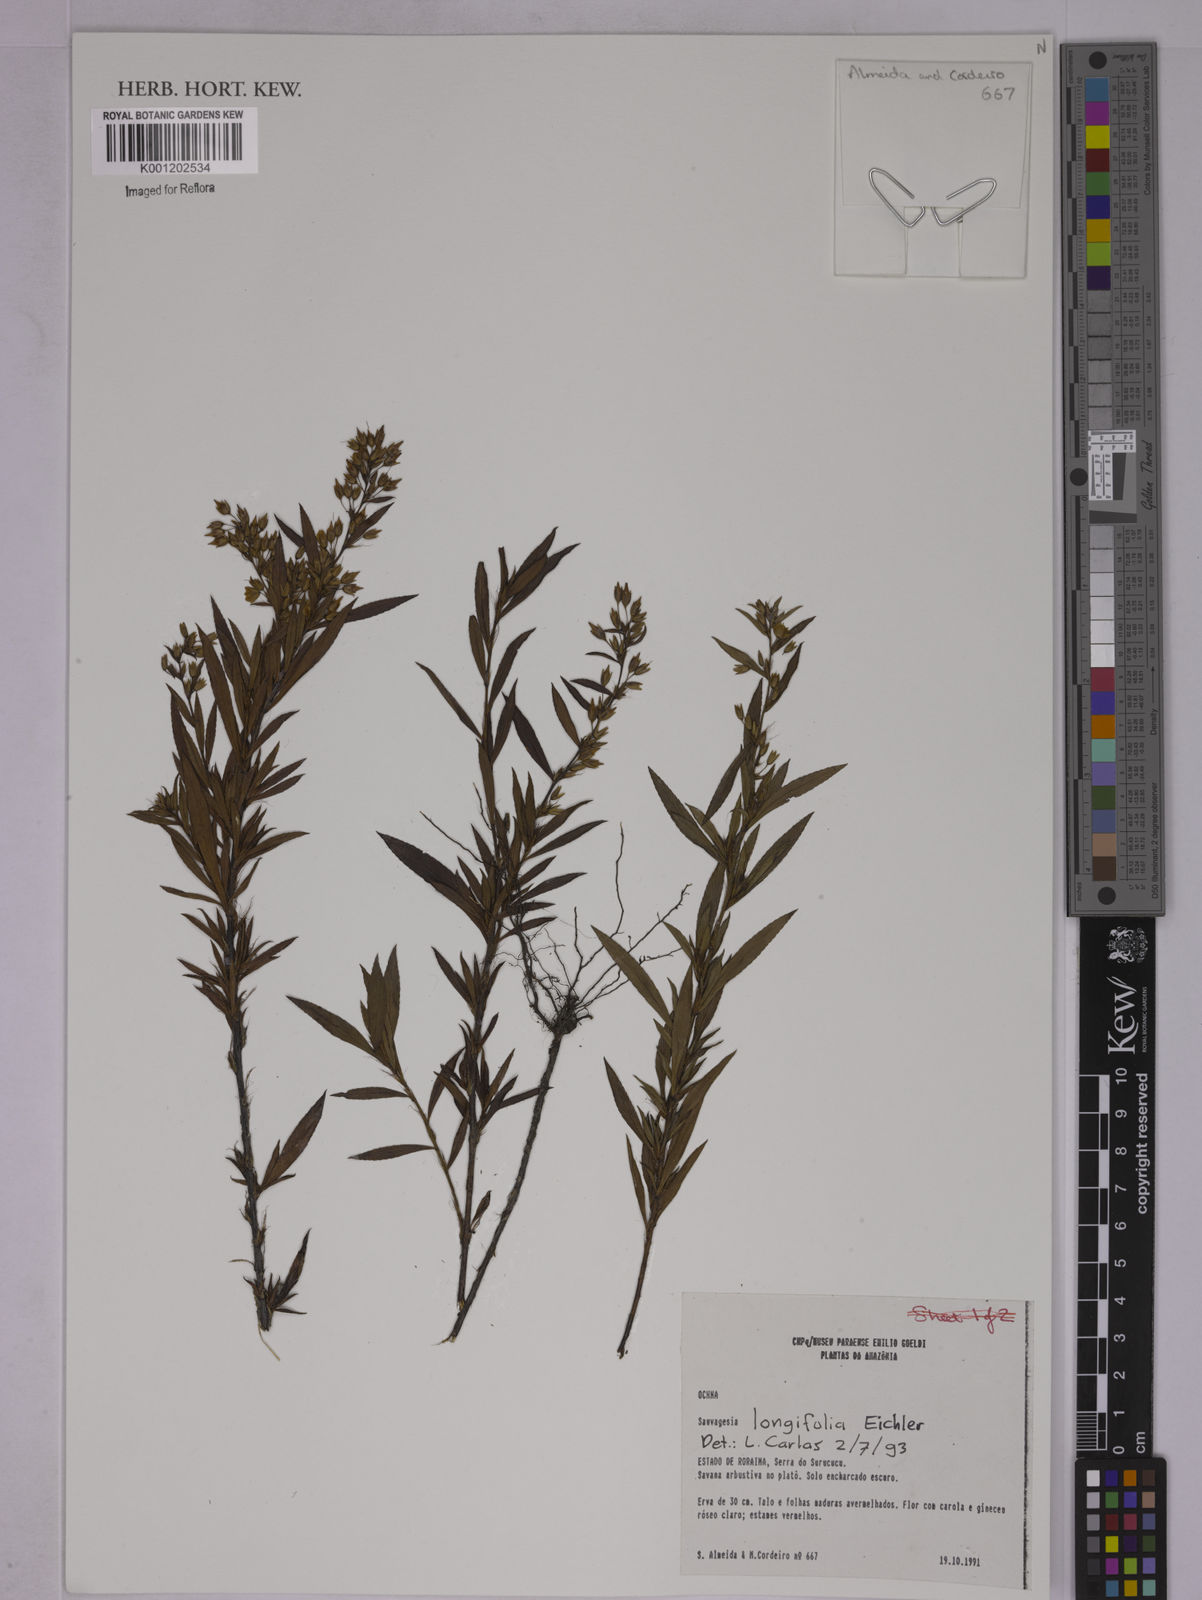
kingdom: Plantae
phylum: Tracheophyta
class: Magnoliopsida
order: Malpighiales
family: Ochnaceae
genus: Sauvagesia
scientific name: Sauvagesia longifolia
